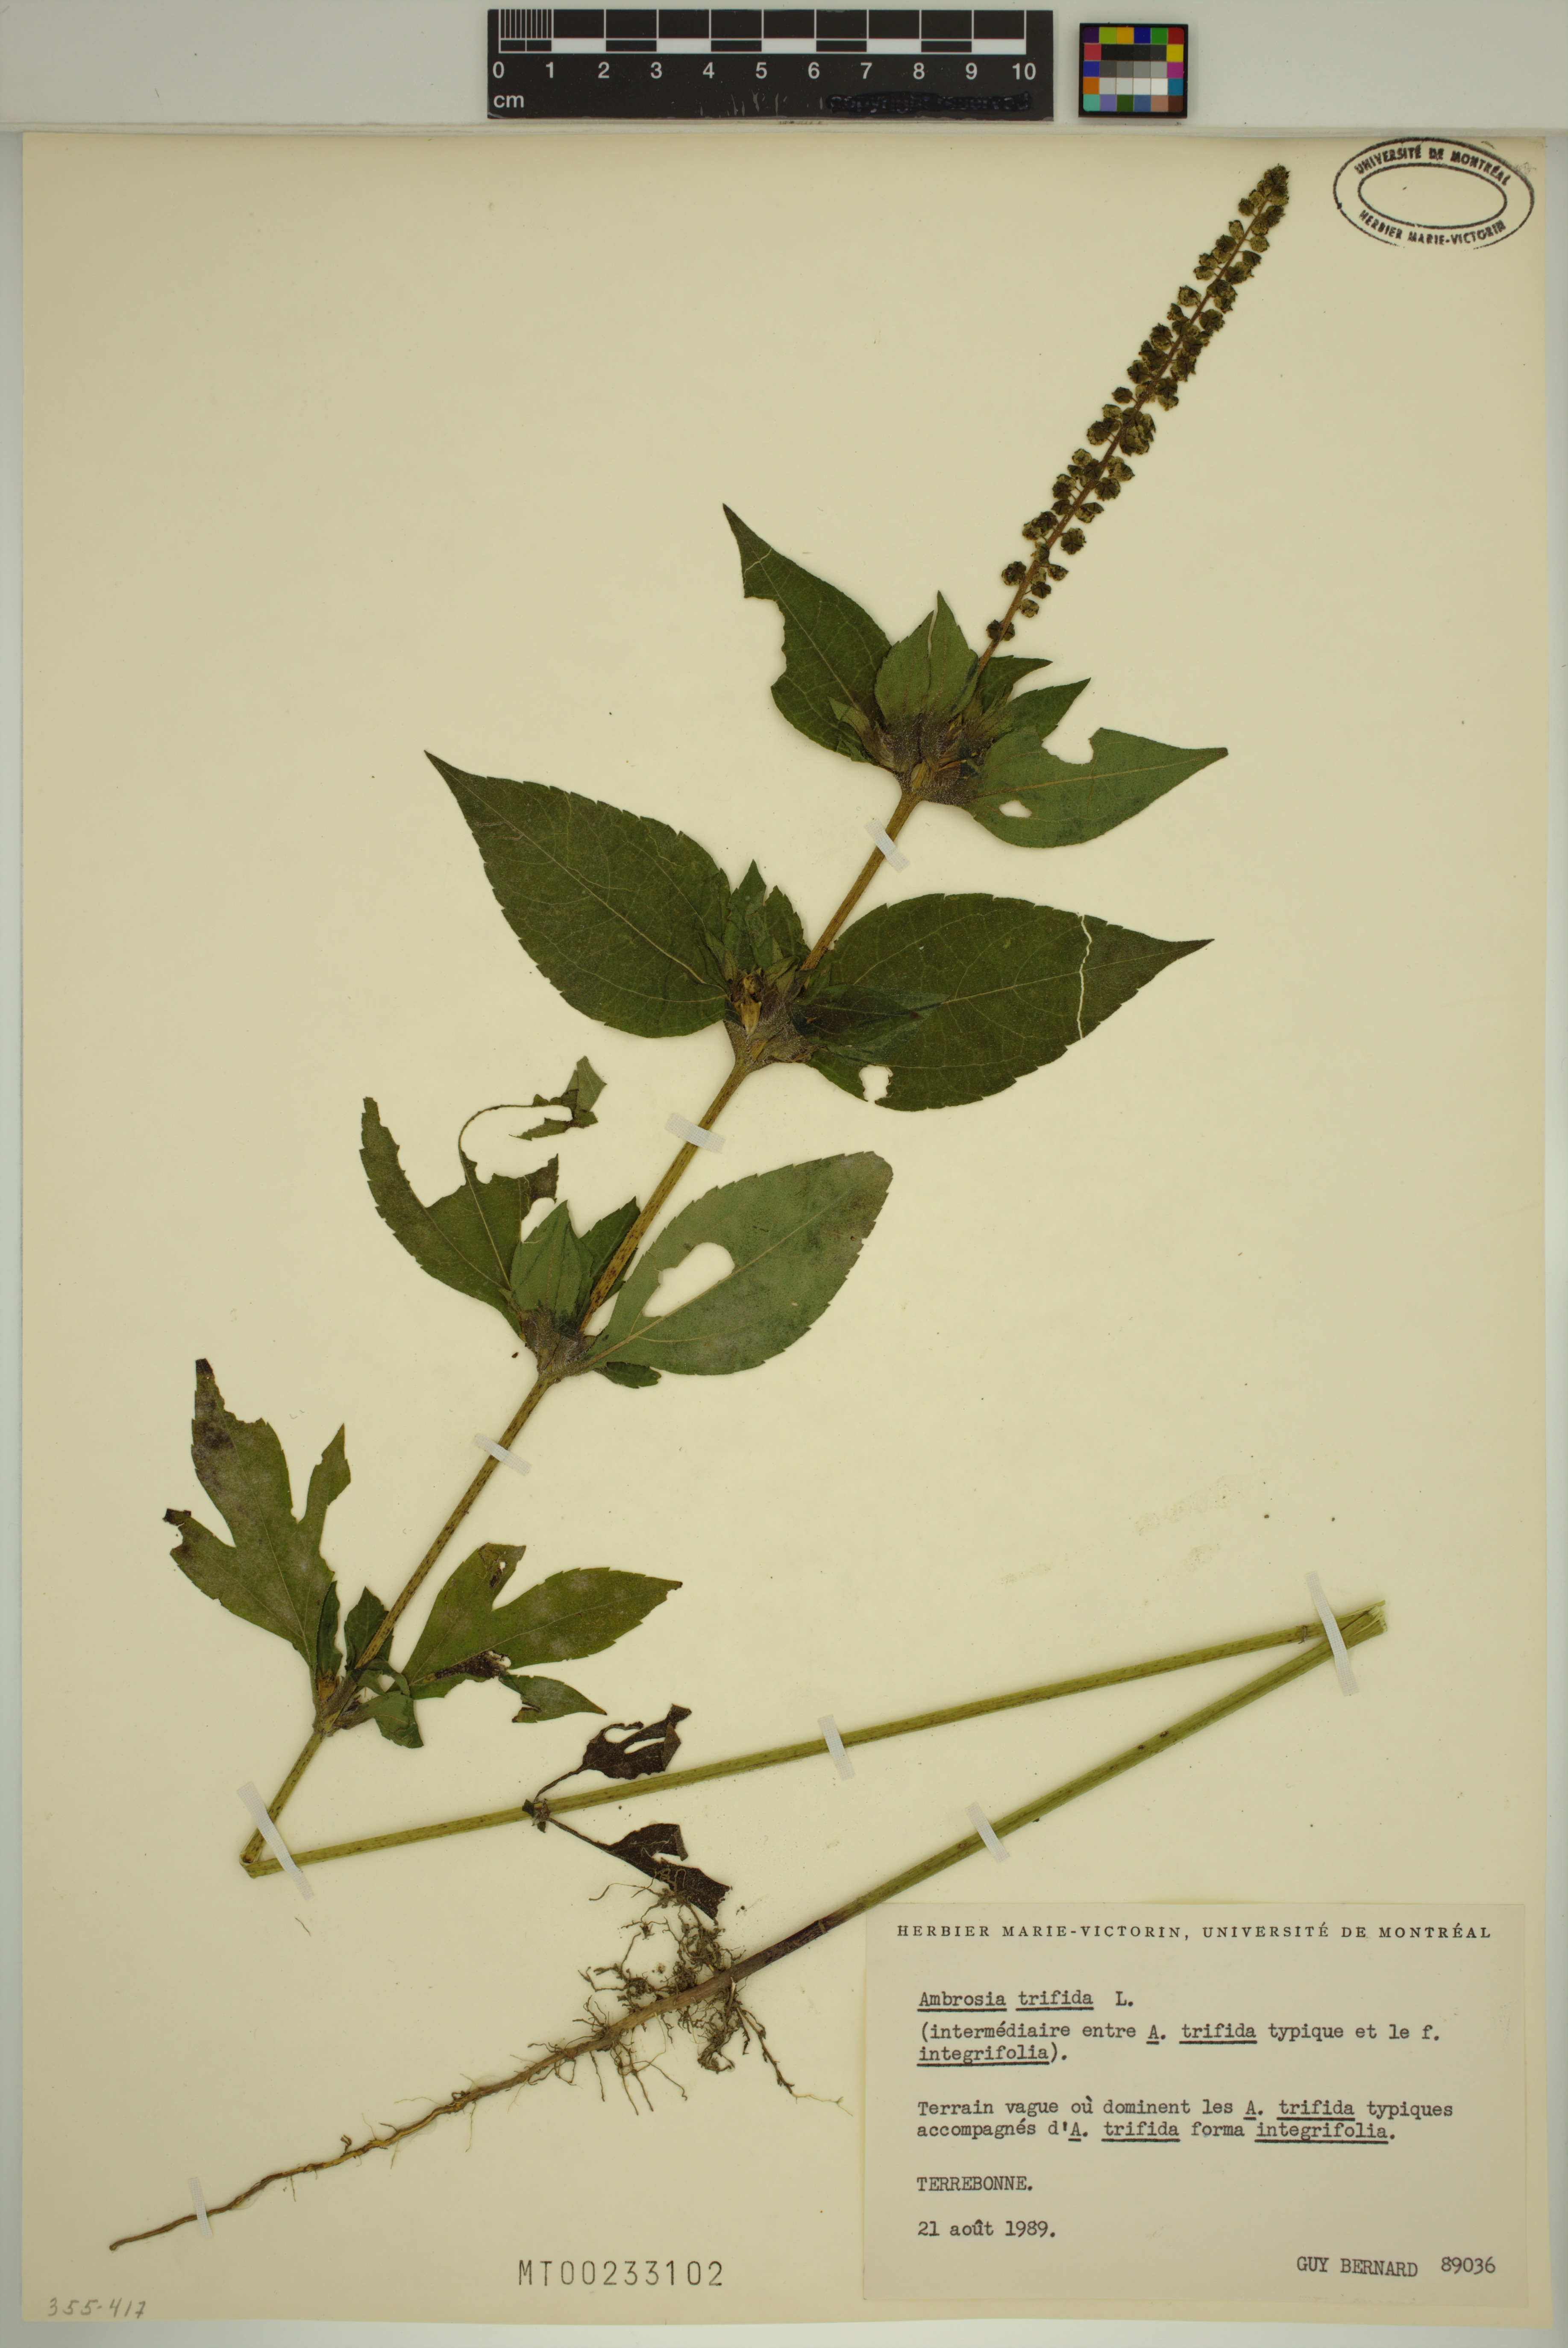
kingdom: Plantae
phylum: Tracheophyta
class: Magnoliopsida
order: Asterales
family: Asteraceae
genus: Ambrosia
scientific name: Ambrosia trifida
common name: Giant ragweed
